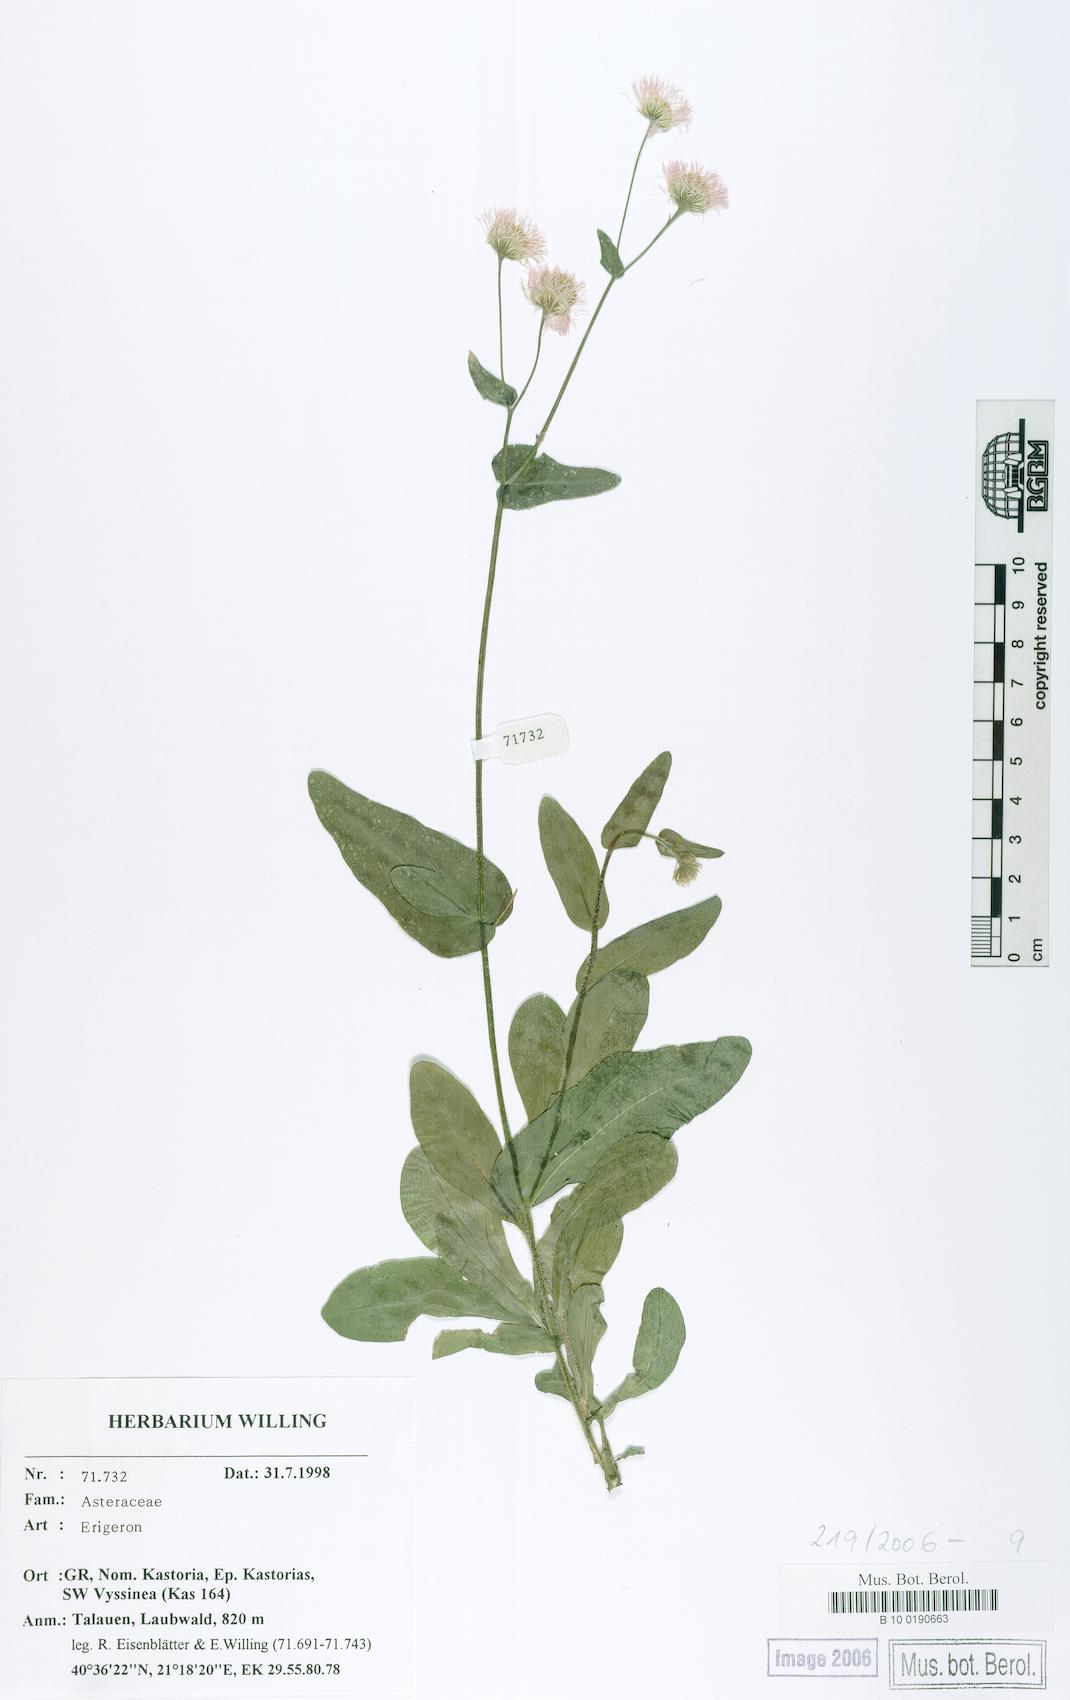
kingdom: Plantae
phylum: Tracheophyta
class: Magnoliopsida
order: Asterales
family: Asteraceae
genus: Erigeron
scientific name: Erigeron
